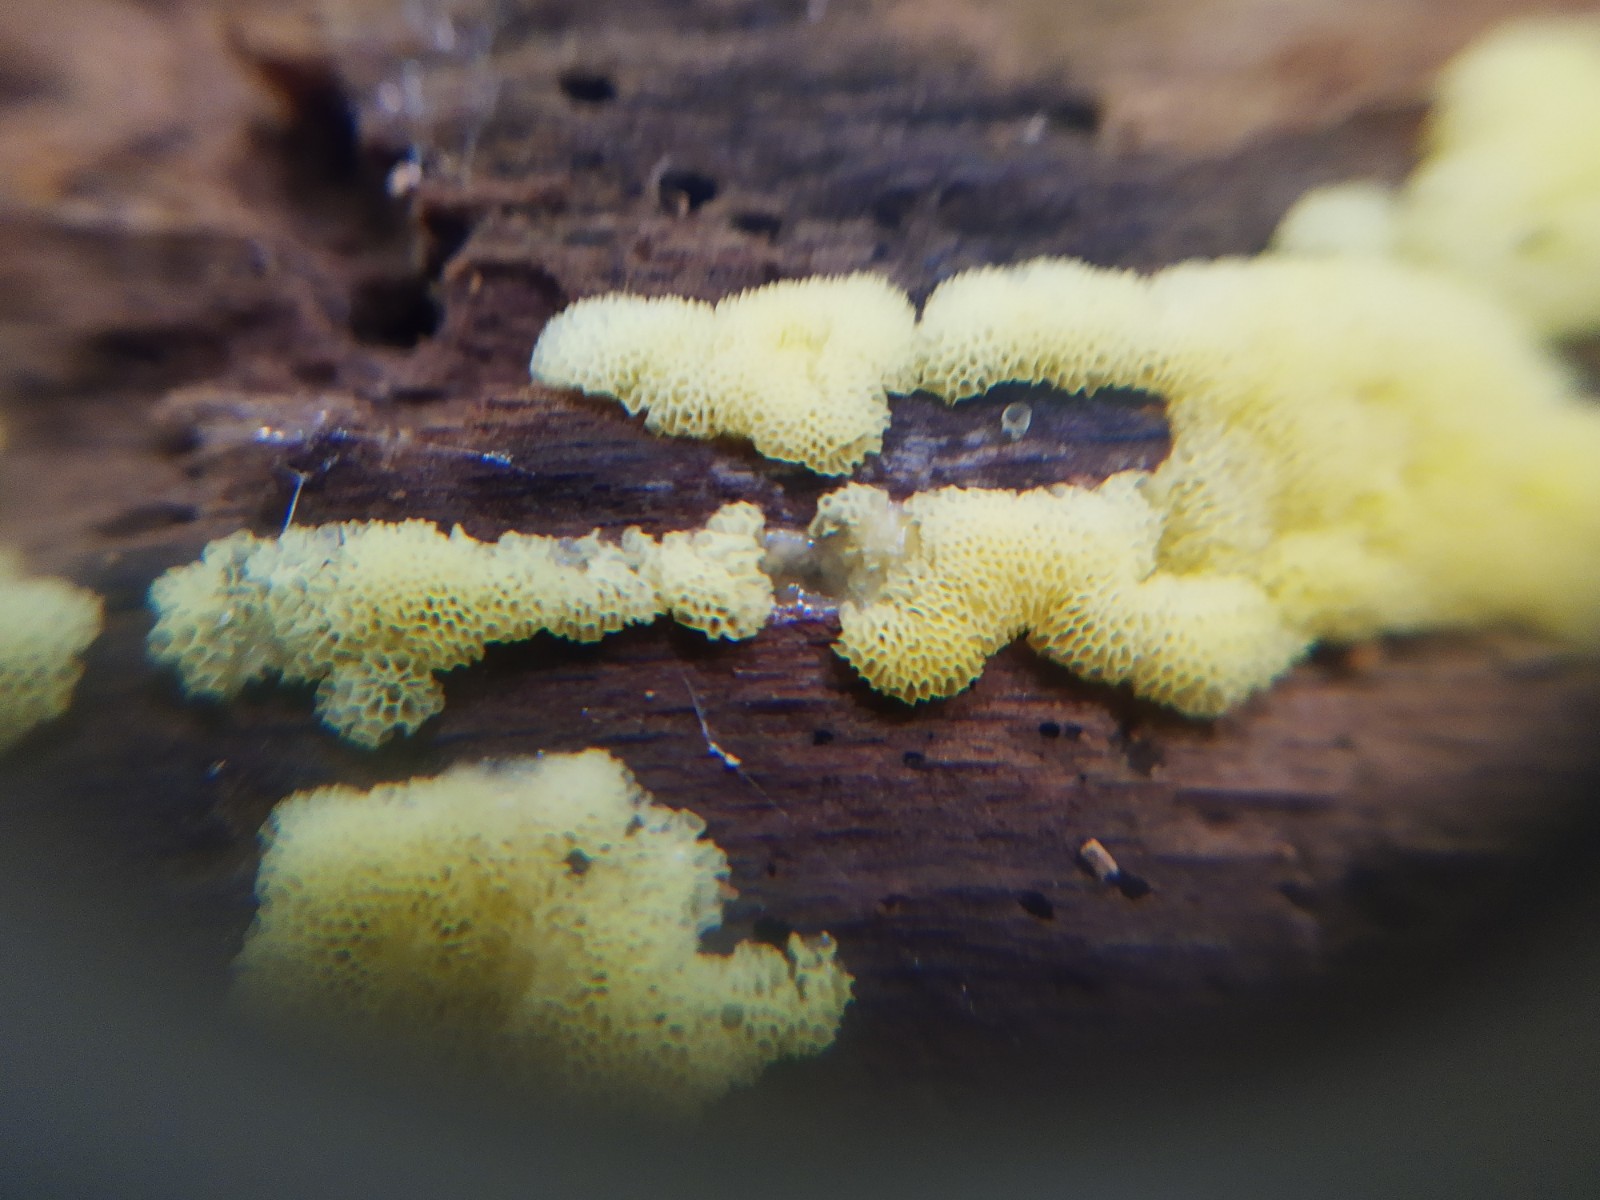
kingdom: Protozoa
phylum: Mycetozoa
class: Protosteliomycetes
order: Ceratiomyxales
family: Ceratiomyxaceae
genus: Ceratiomyxa
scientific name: Ceratiomyxa fruticulosa
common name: Honeycomb coral slime mold
